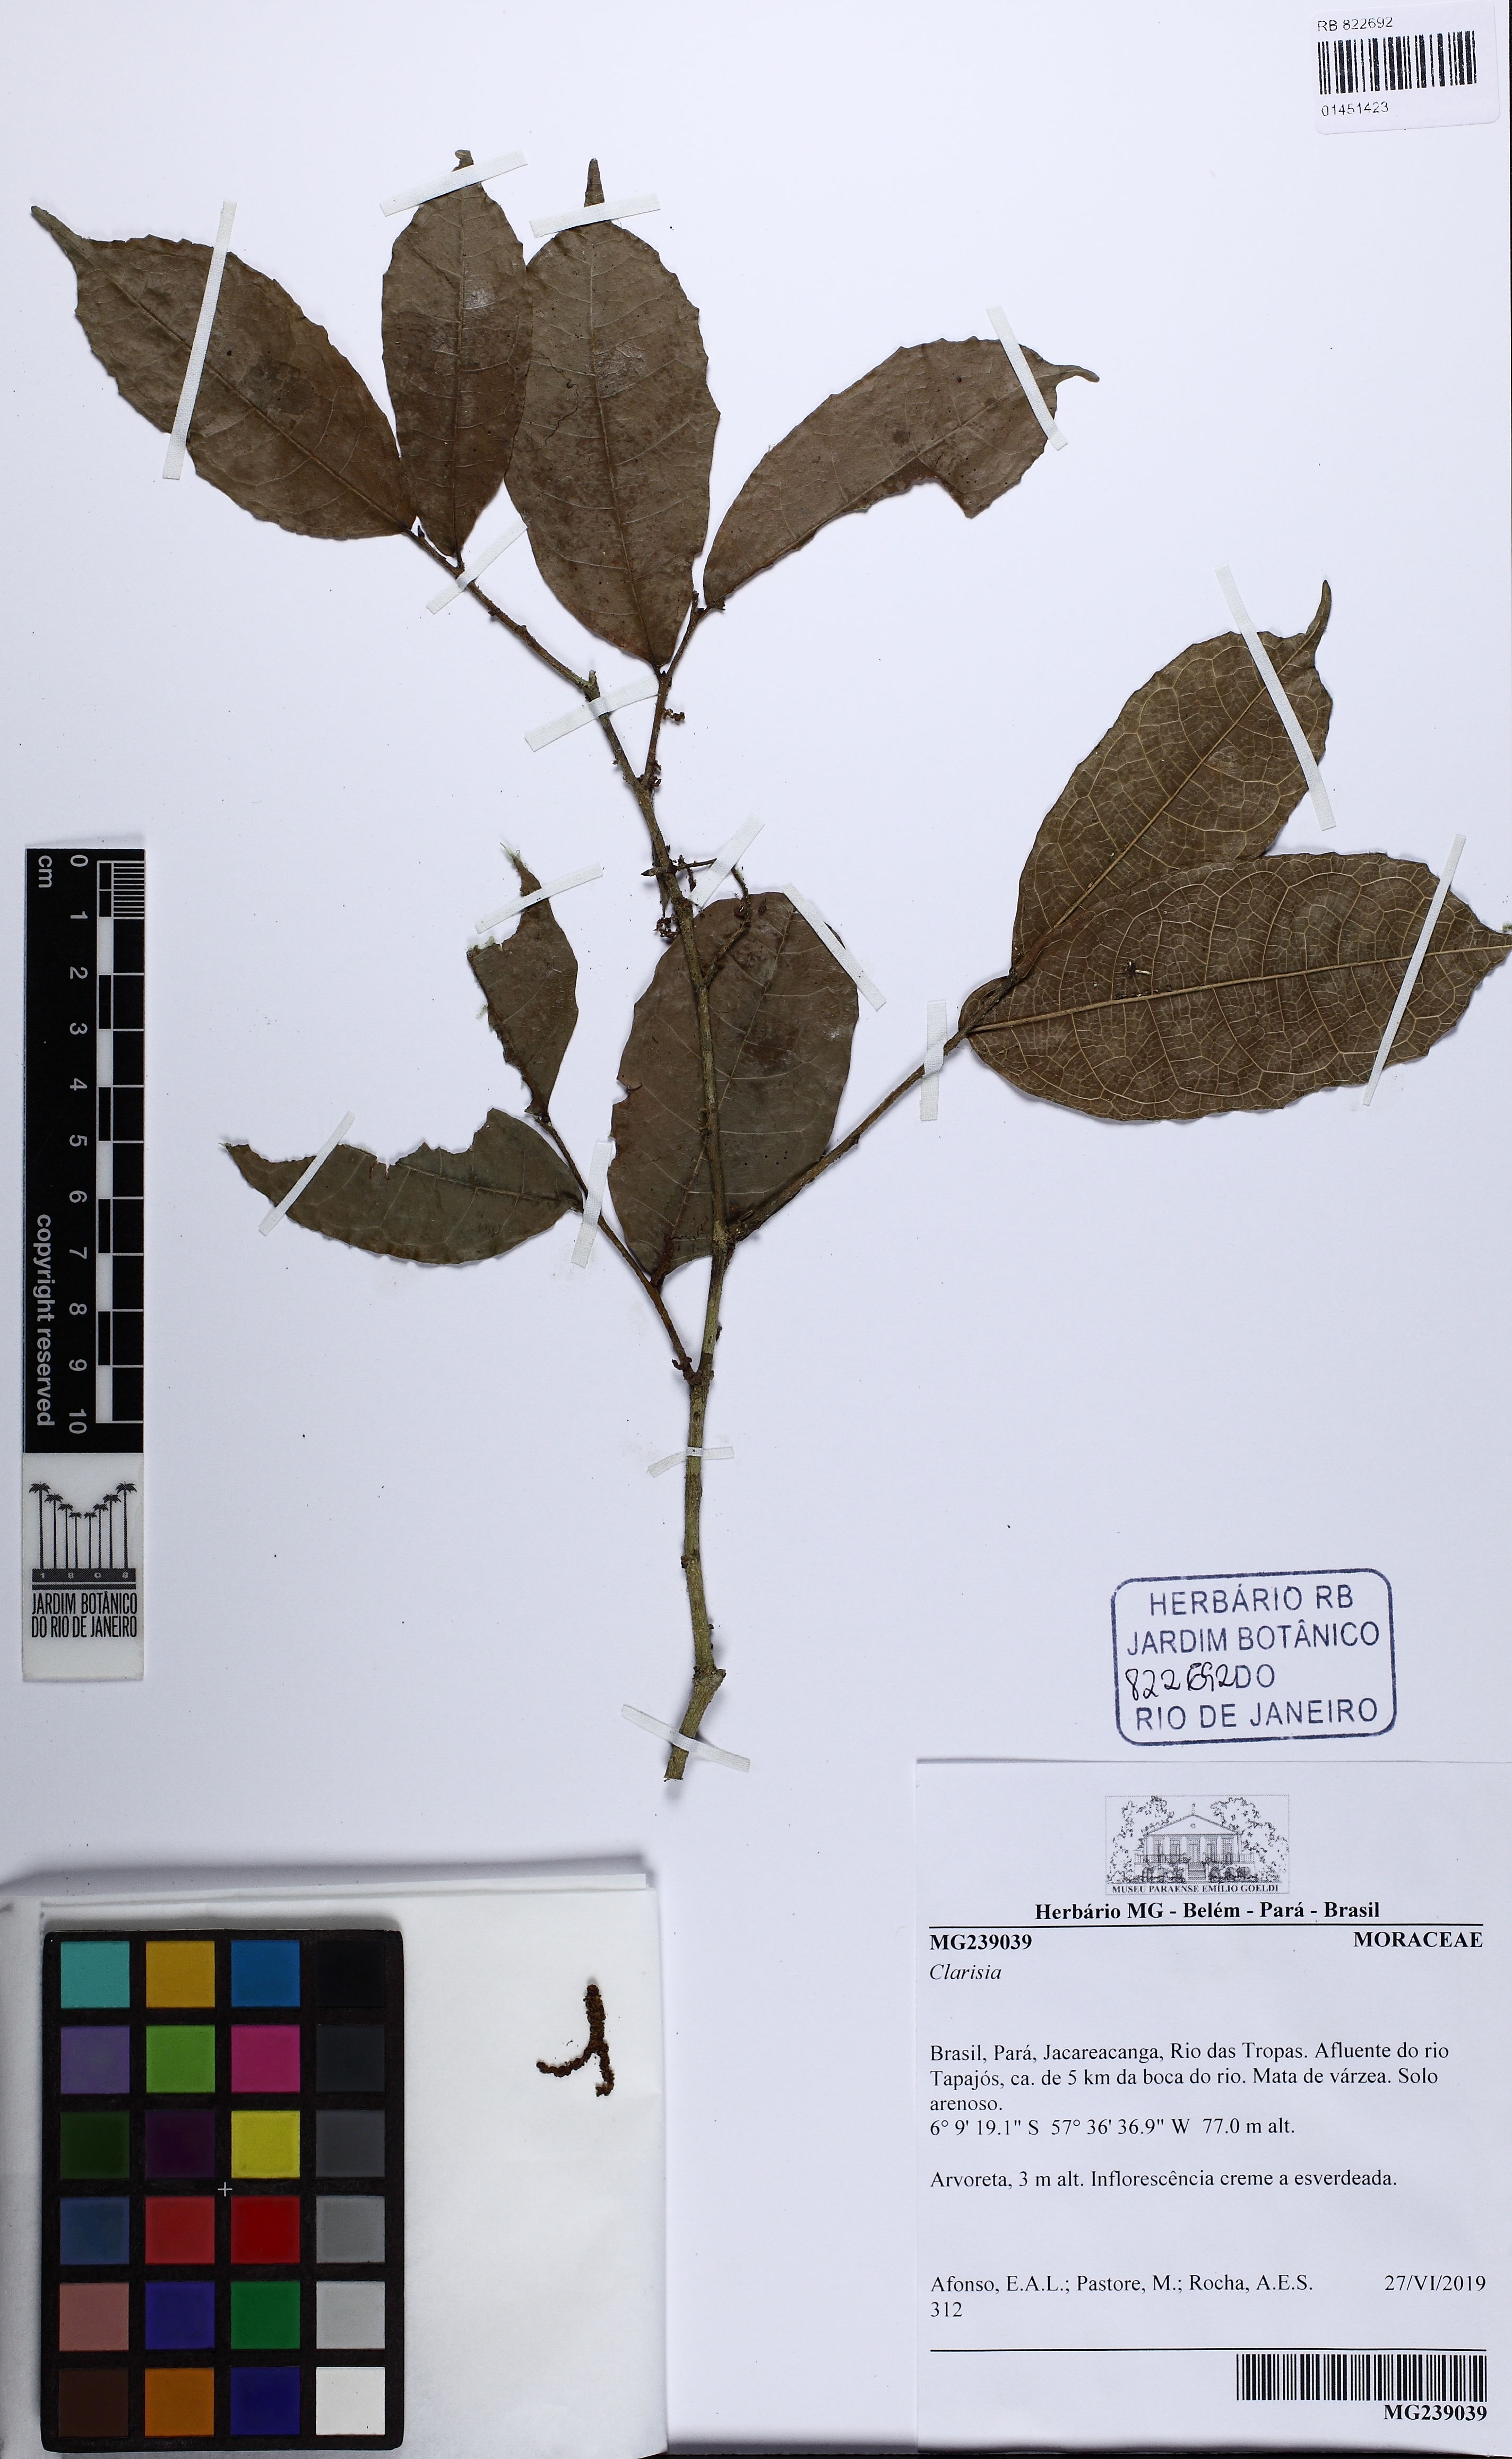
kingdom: Plantae
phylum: Tracheophyta
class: Magnoliopsida
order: Rosales
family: Moraceae
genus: Clarisia
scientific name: Clarisia
